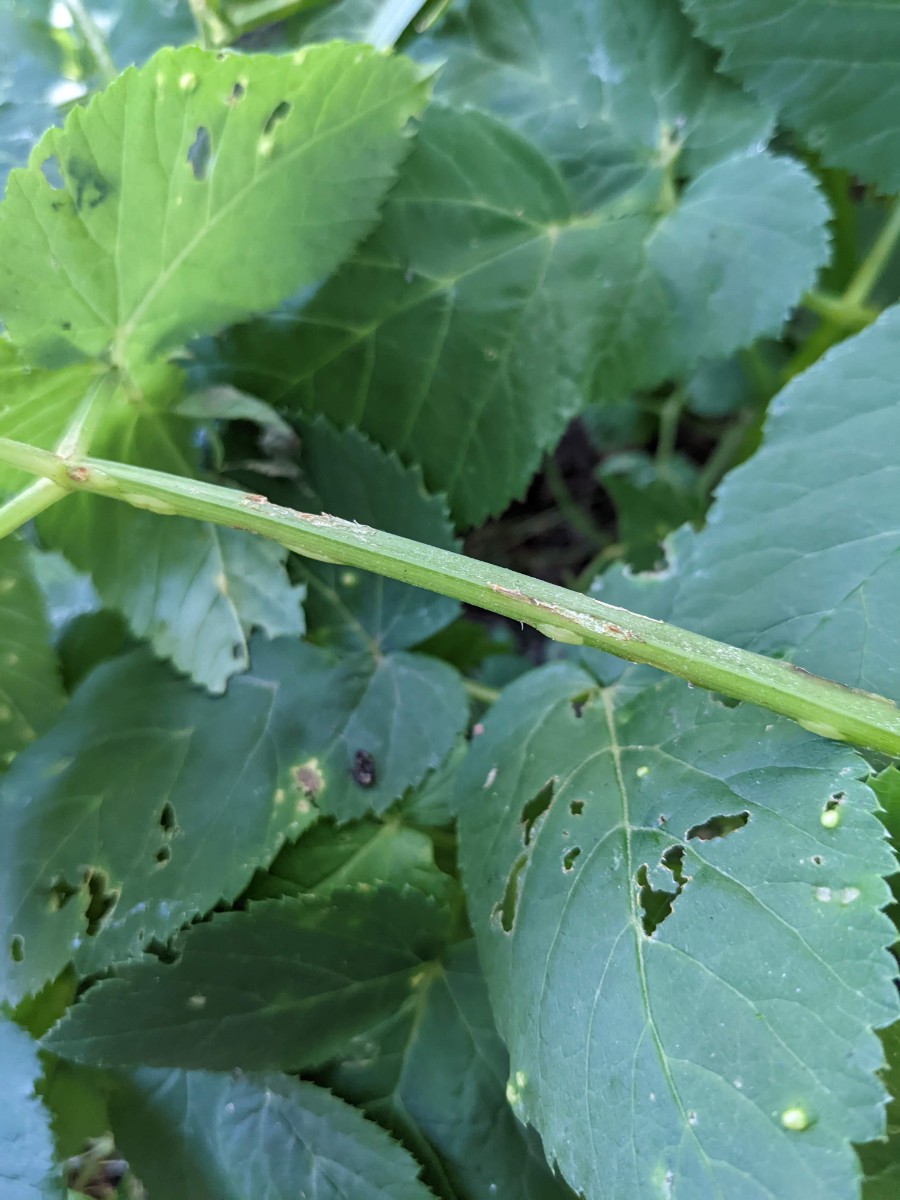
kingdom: Fungi
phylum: Ascomycota
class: Taphrinomycetes
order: Taphrinales
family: Taphrinaceae
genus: Protomyces
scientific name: Protomyces macrosporus
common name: skvalderkål-vablesæk
